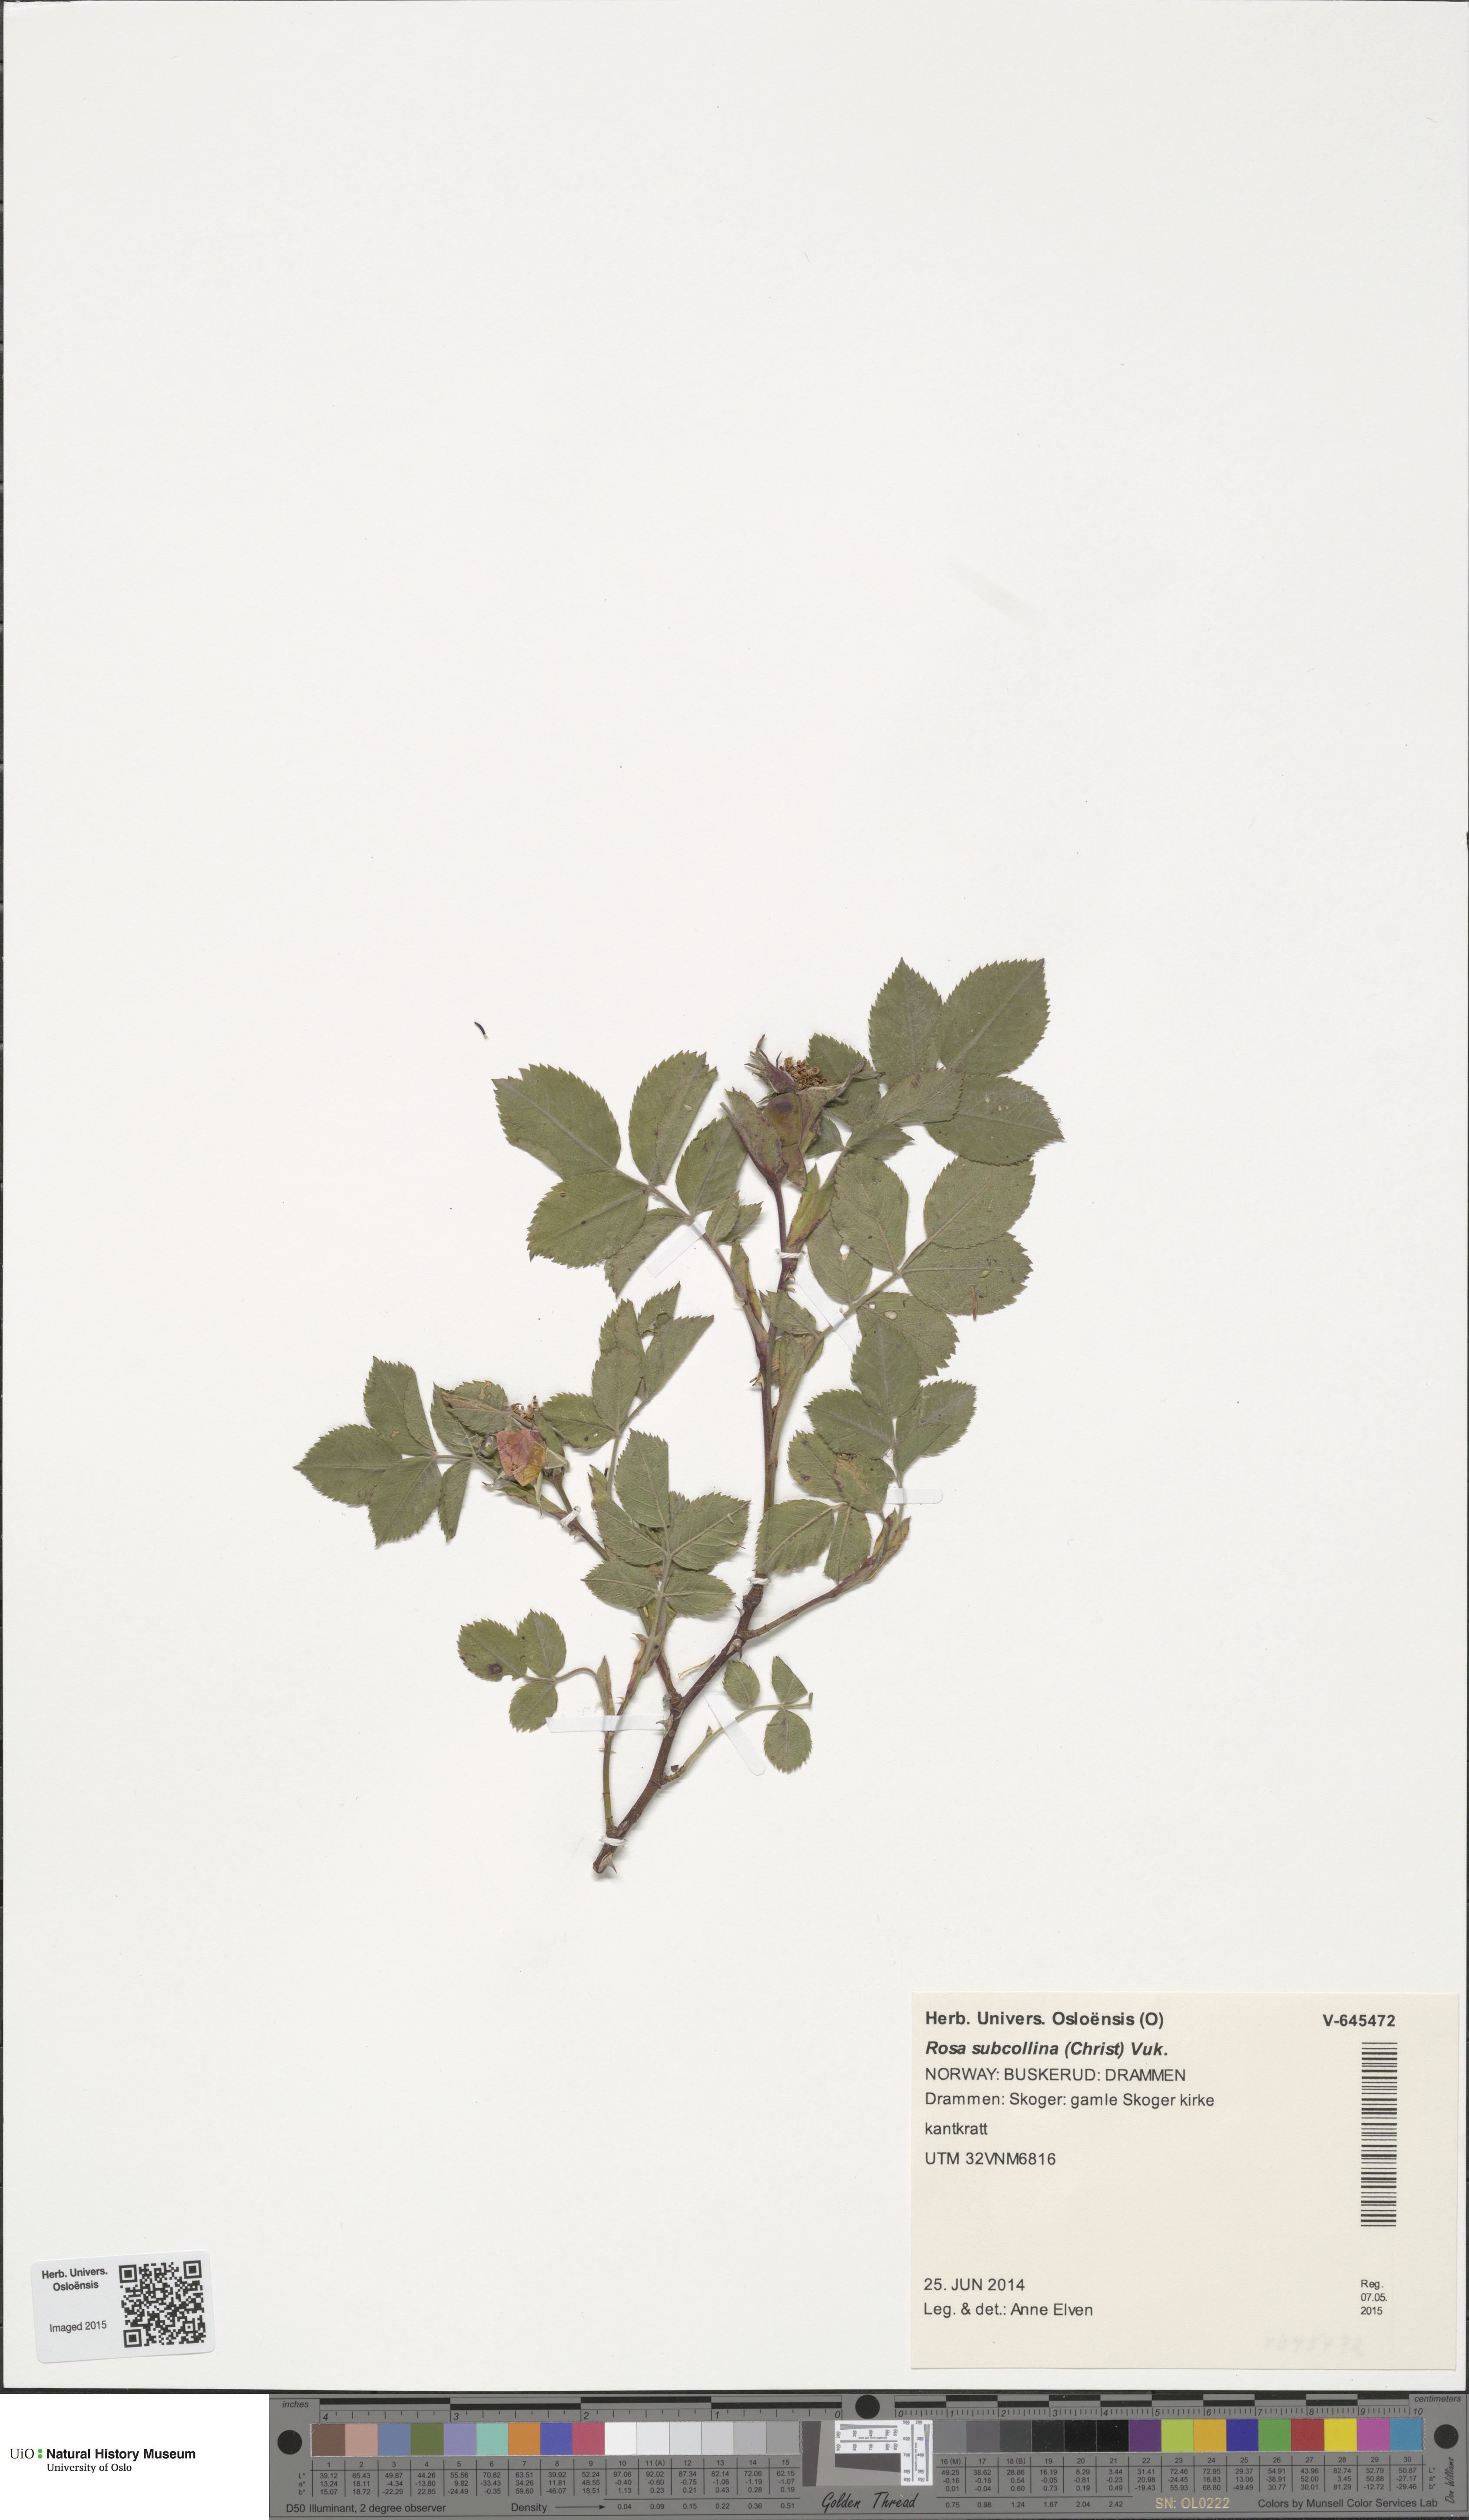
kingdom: Plantae
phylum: Tracheophyta
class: Magnoliopsida
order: Rosales
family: Rosaceae
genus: Rosa
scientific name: Rosa subcollina
